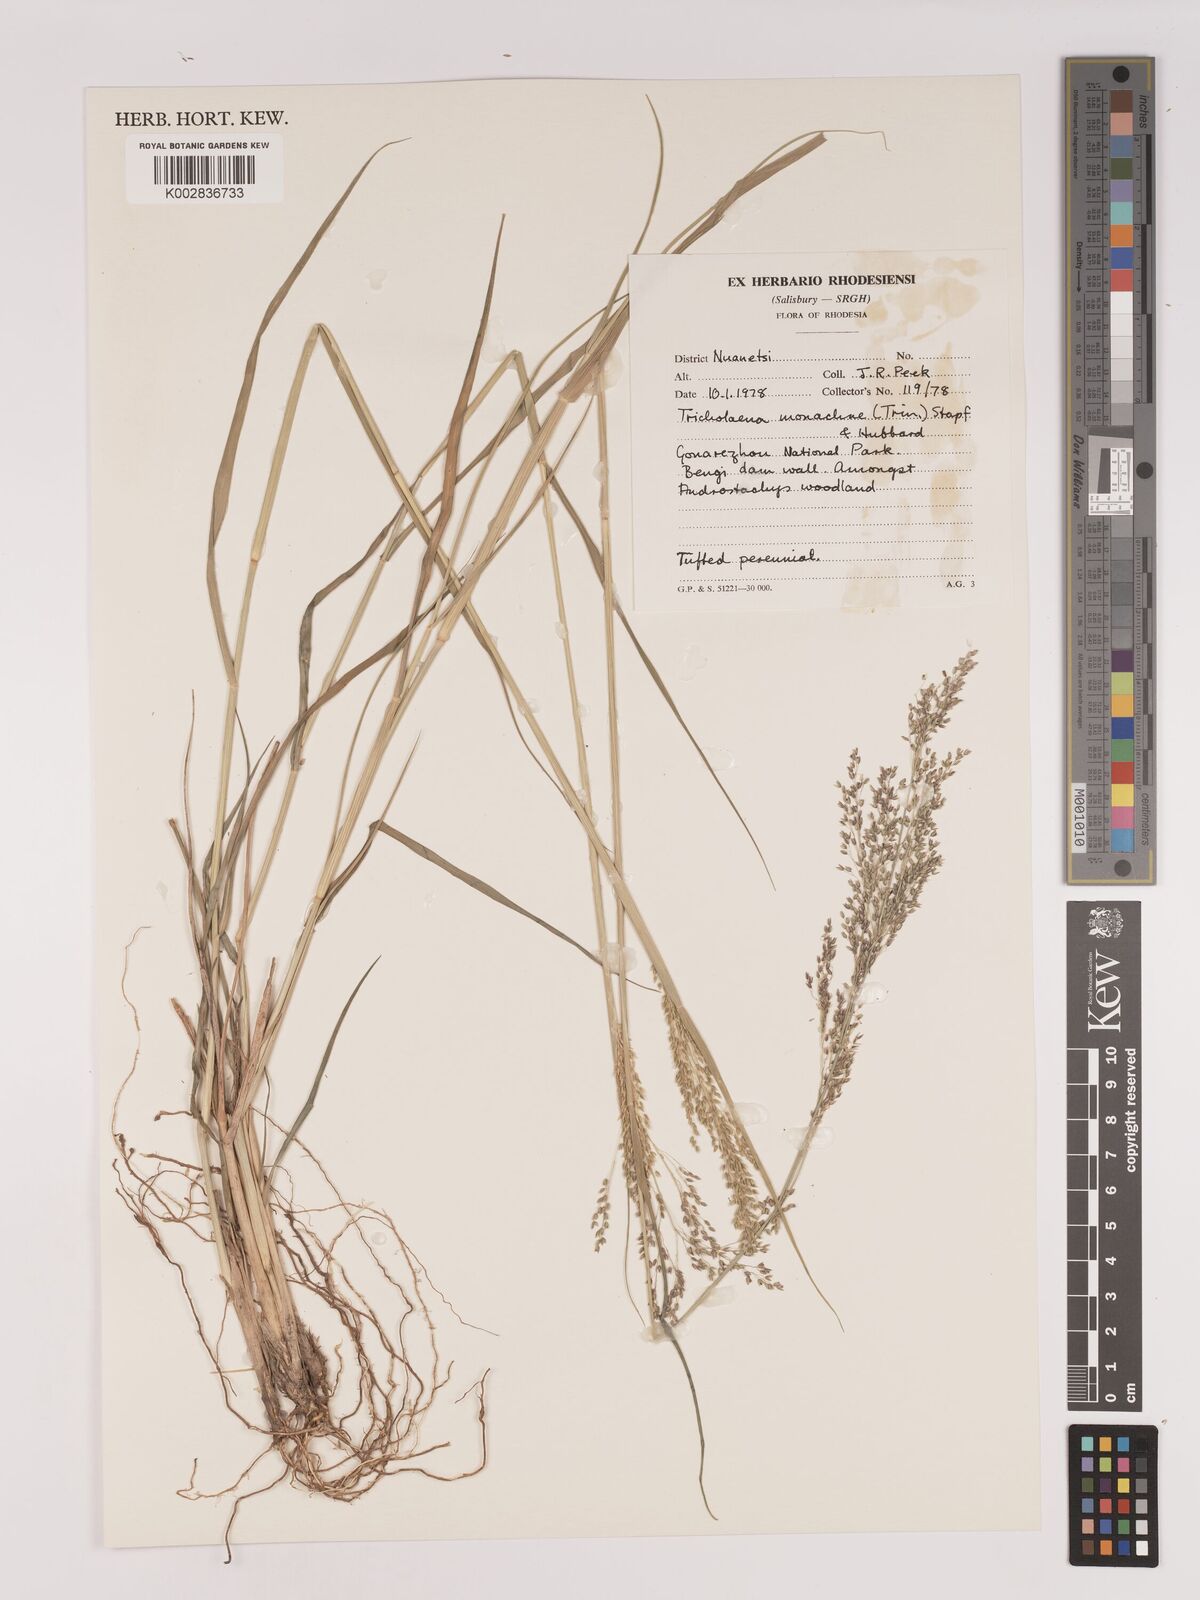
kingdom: Plantae
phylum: Tracheophyta
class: Liliopsida
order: Poales
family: Poaceae
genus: Tricholaena
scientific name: Tricholaena monachne
